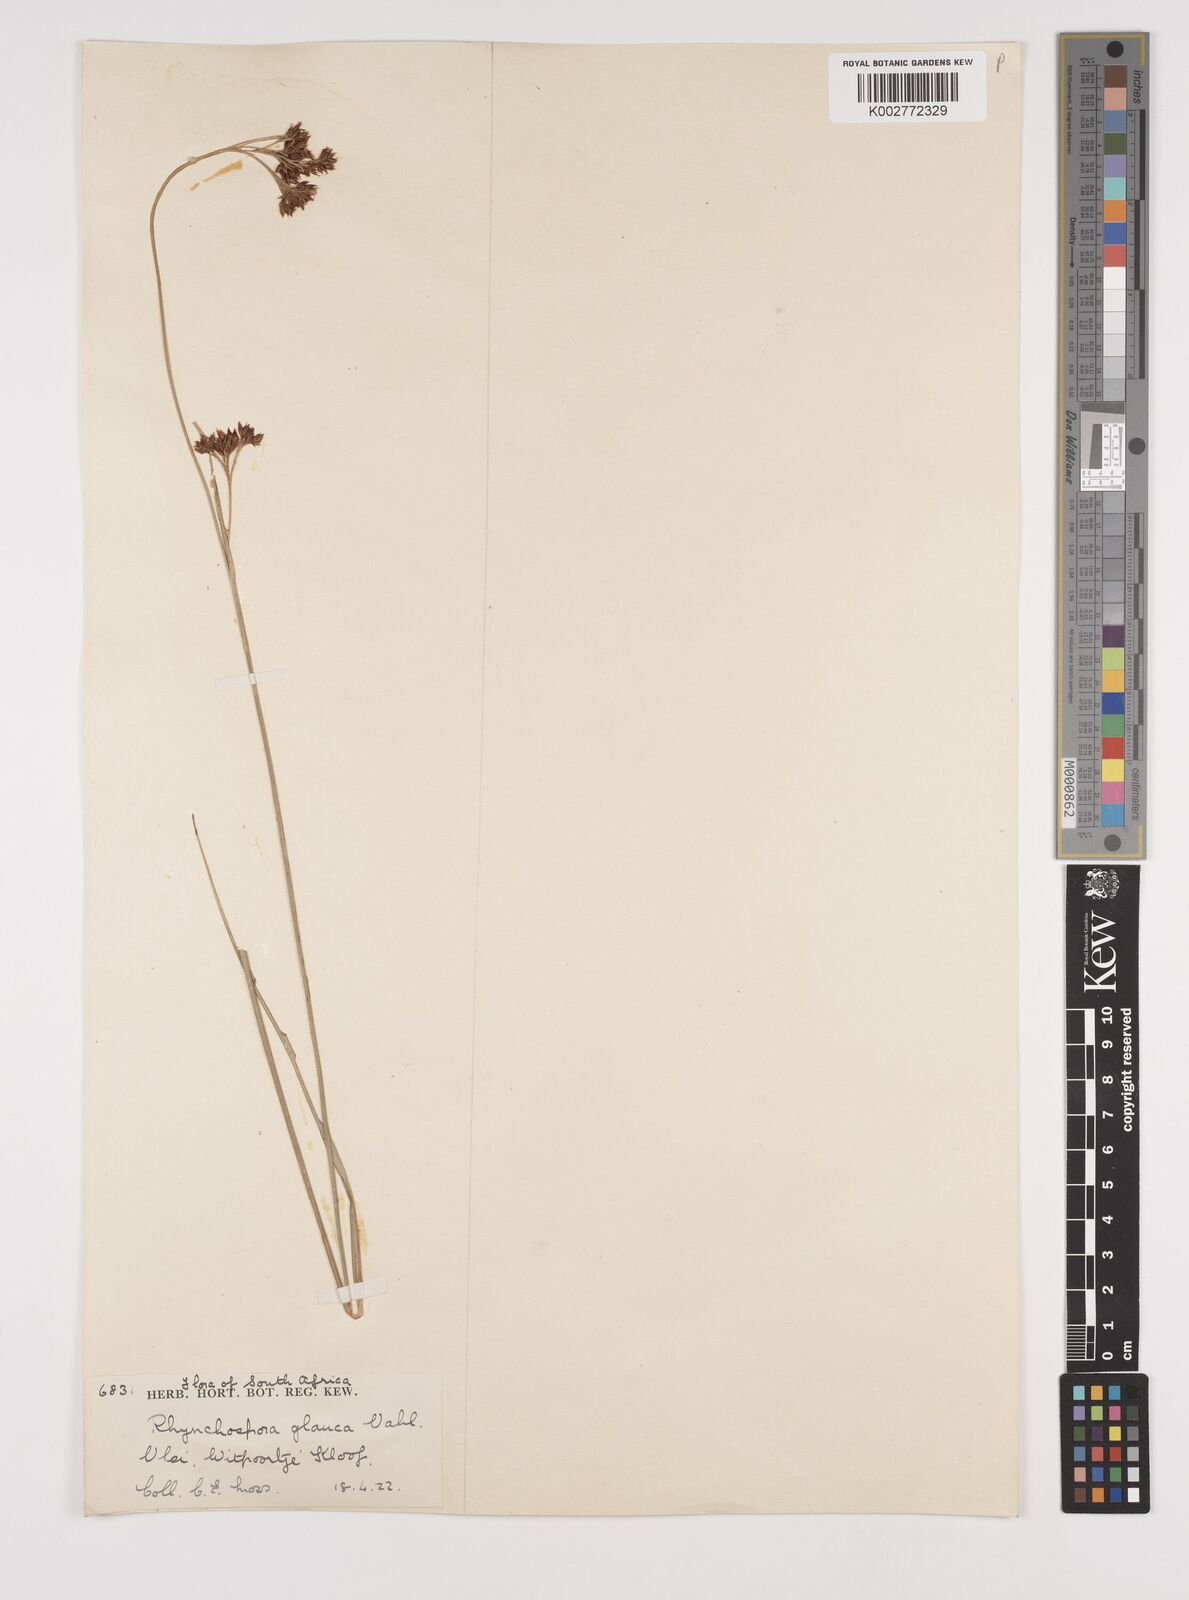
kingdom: Plantae
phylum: Tracheophyta
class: Liliopsida
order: Poales
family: Cyperaceae
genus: Rhynchospora
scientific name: Rhynchospora rugosa
